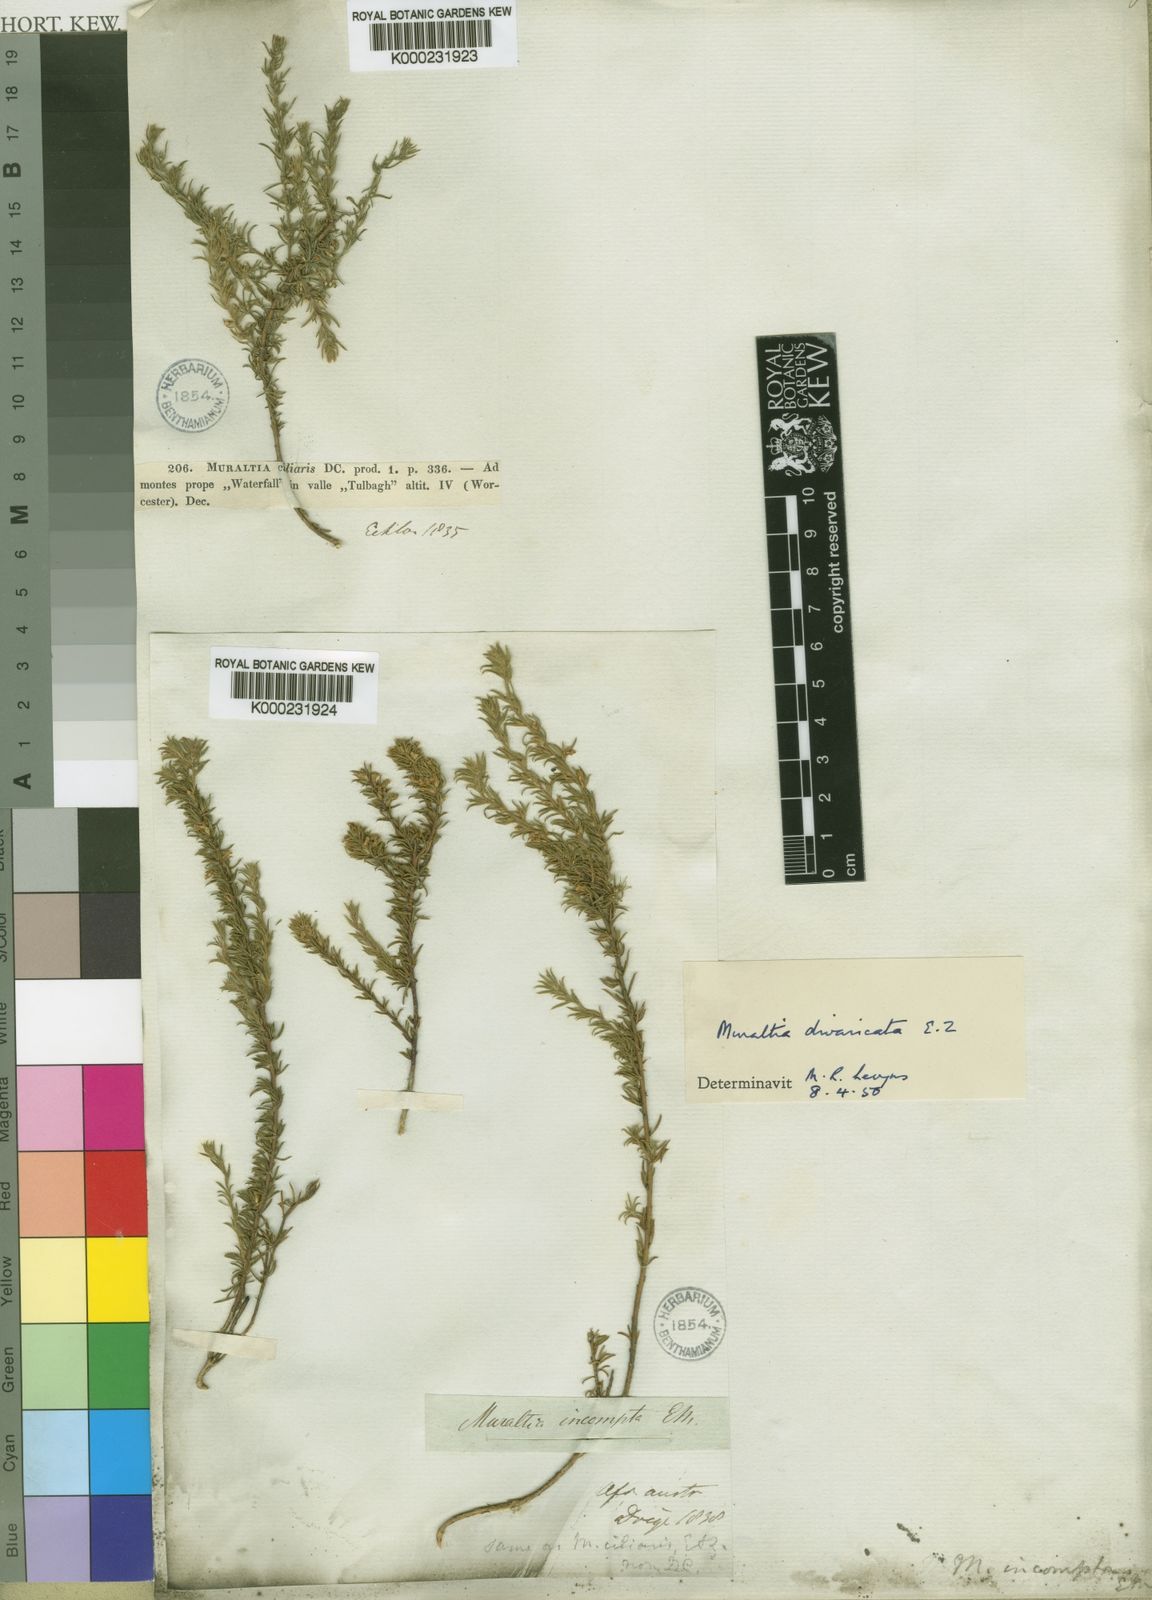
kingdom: Plantae
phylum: Tracheophyta
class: Magnoliopsida
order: Fabales
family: Polygalaceae
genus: Muraltia
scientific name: Muraltia divaricata
